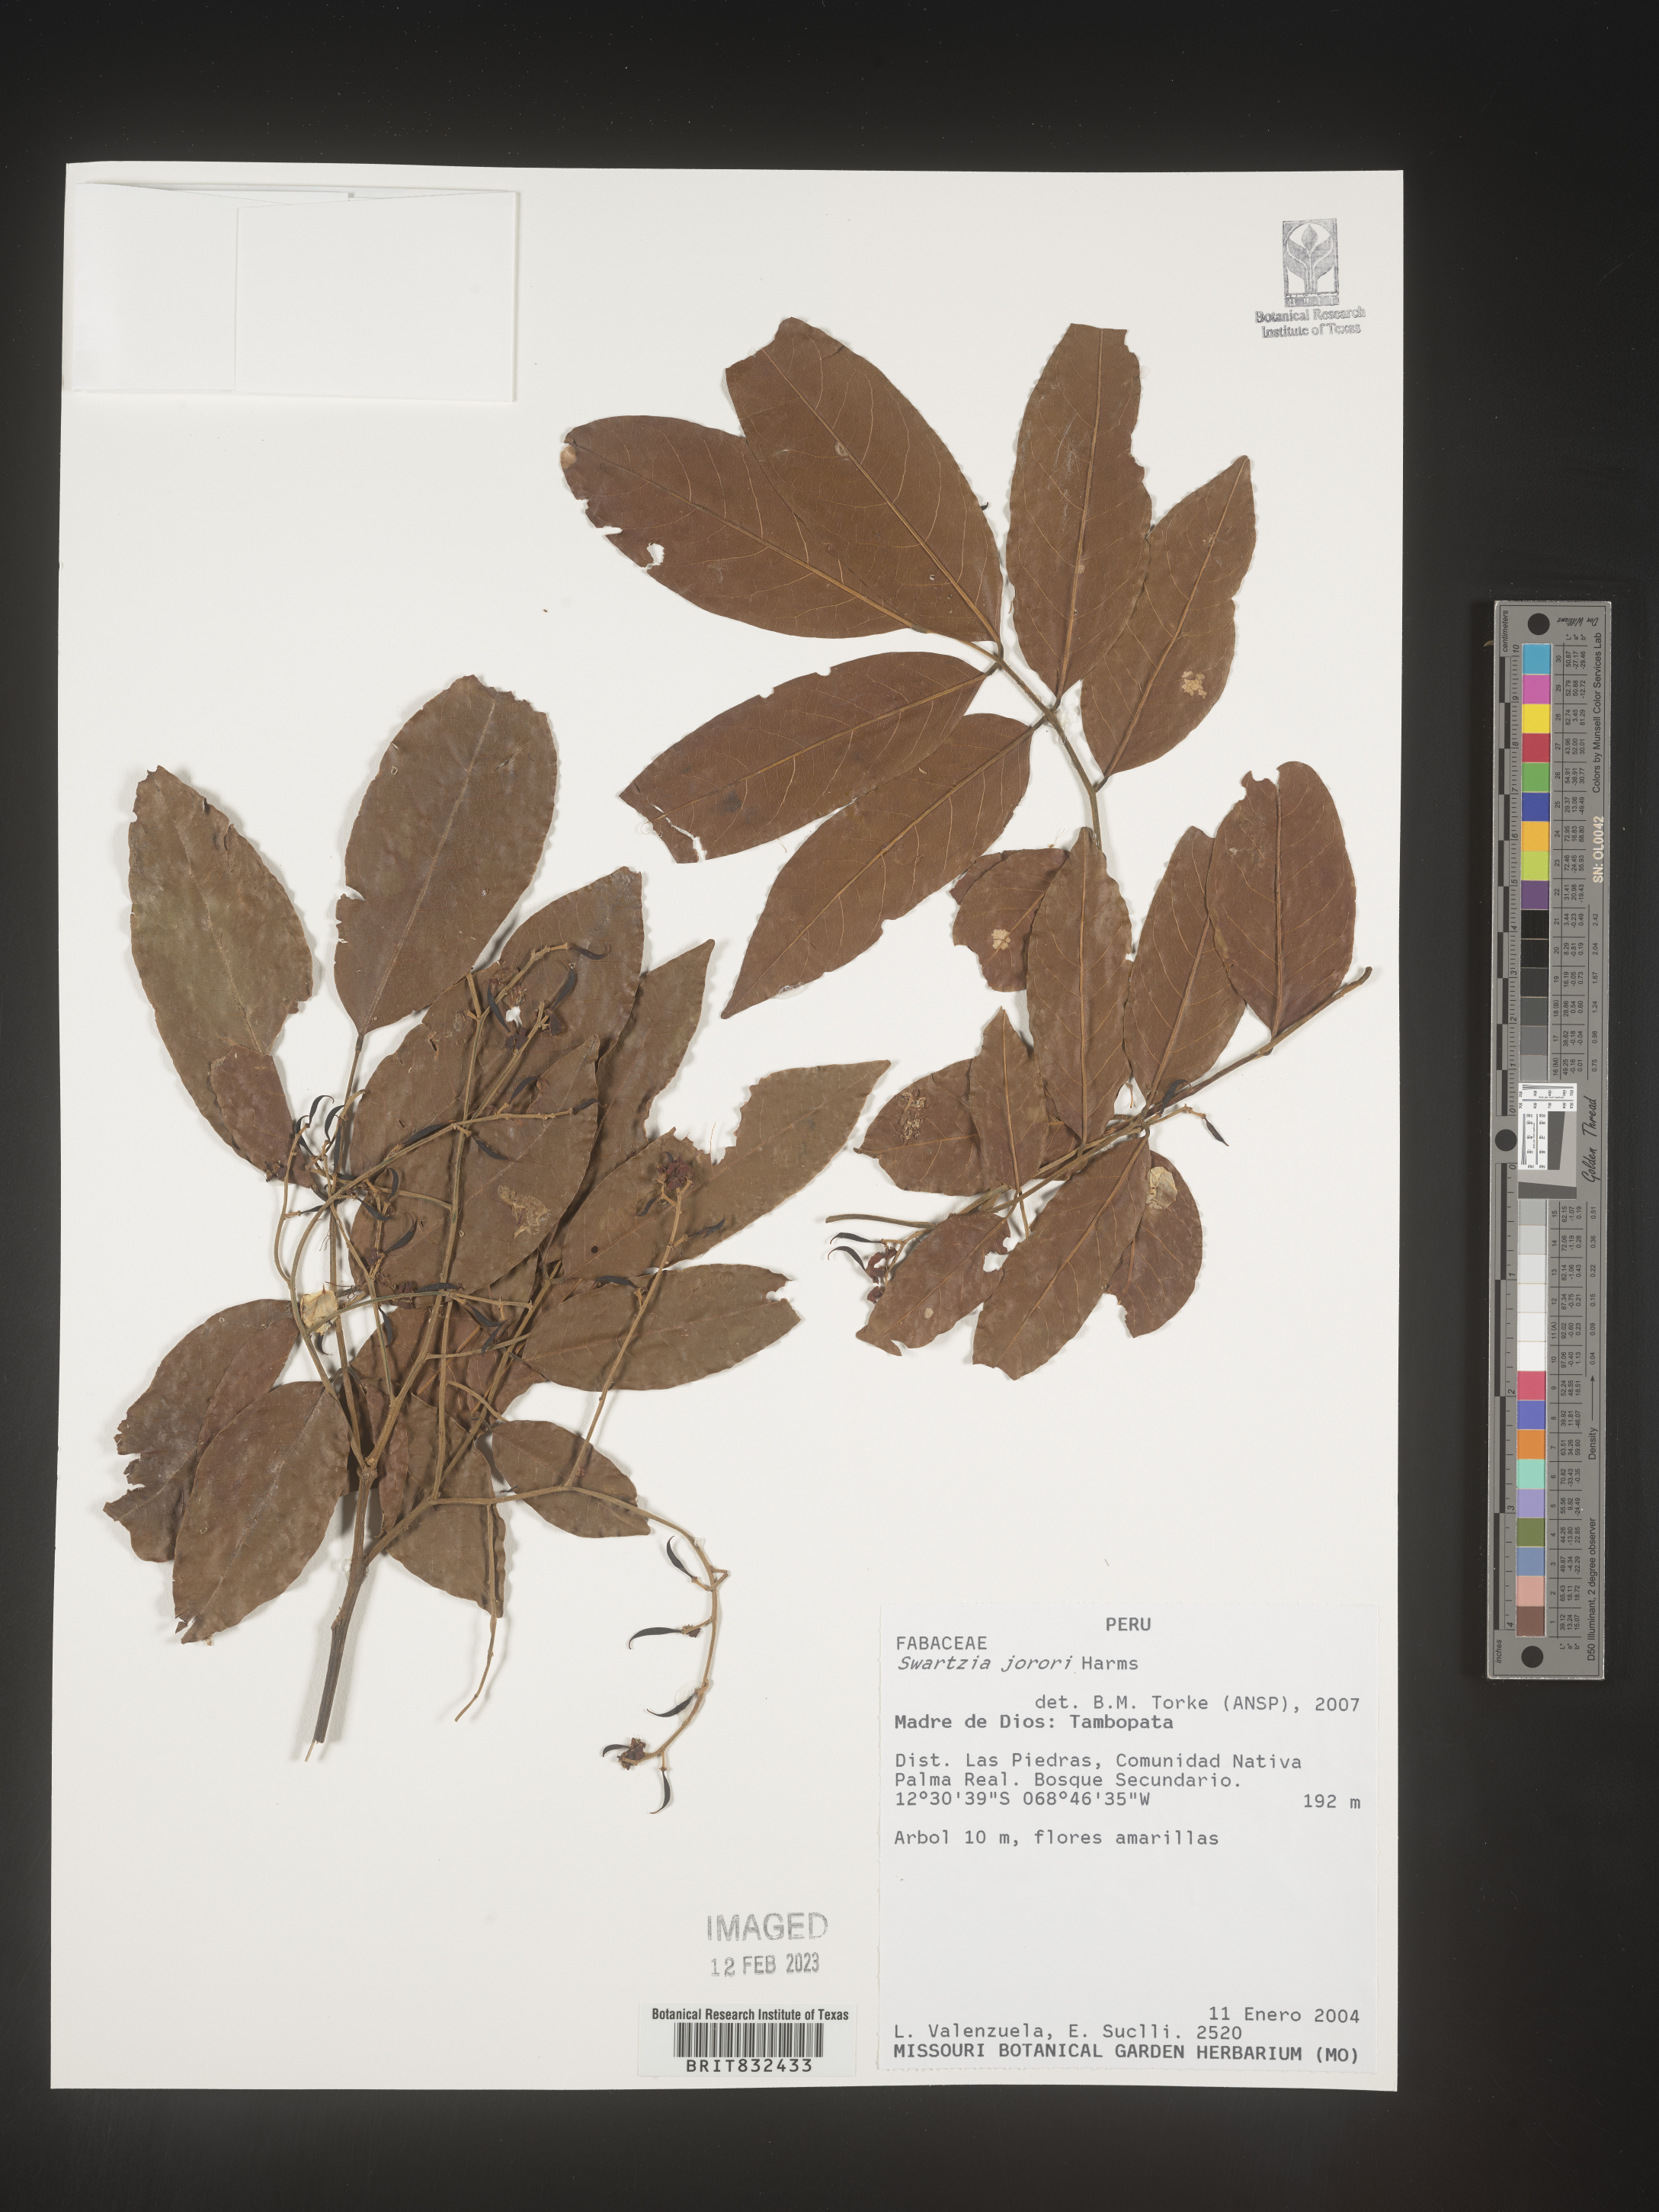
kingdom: Plantae
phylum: Tracheophyta
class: Magnoliopsida
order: Fabales
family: Fabaceae
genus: Swartzia
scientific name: Swartzia
